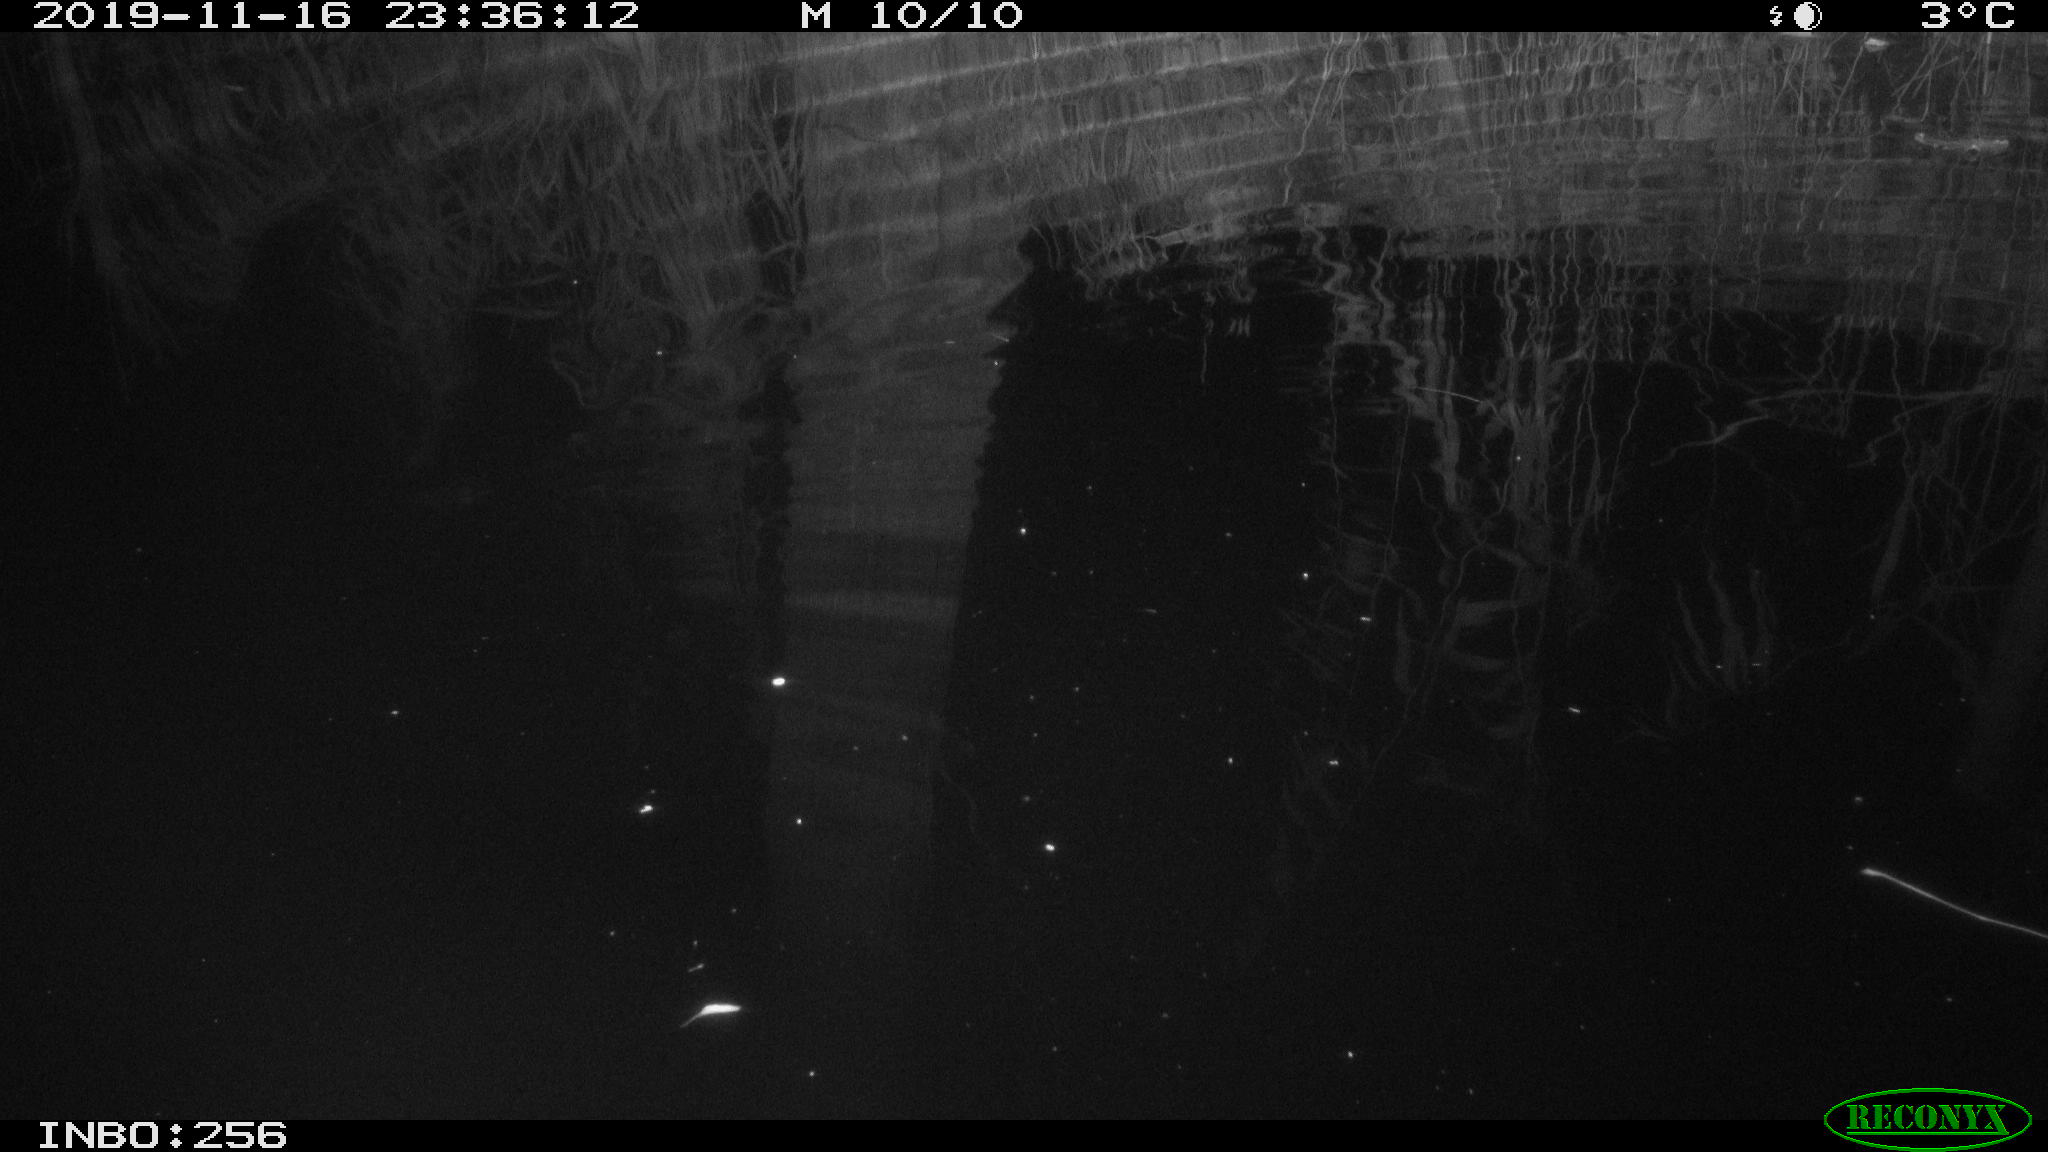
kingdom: Animalia
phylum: Chordata
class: Mammalia
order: Rodentia
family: Cricetidae
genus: Ondatra
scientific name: Ondatra zibethicus
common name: Muskrat
